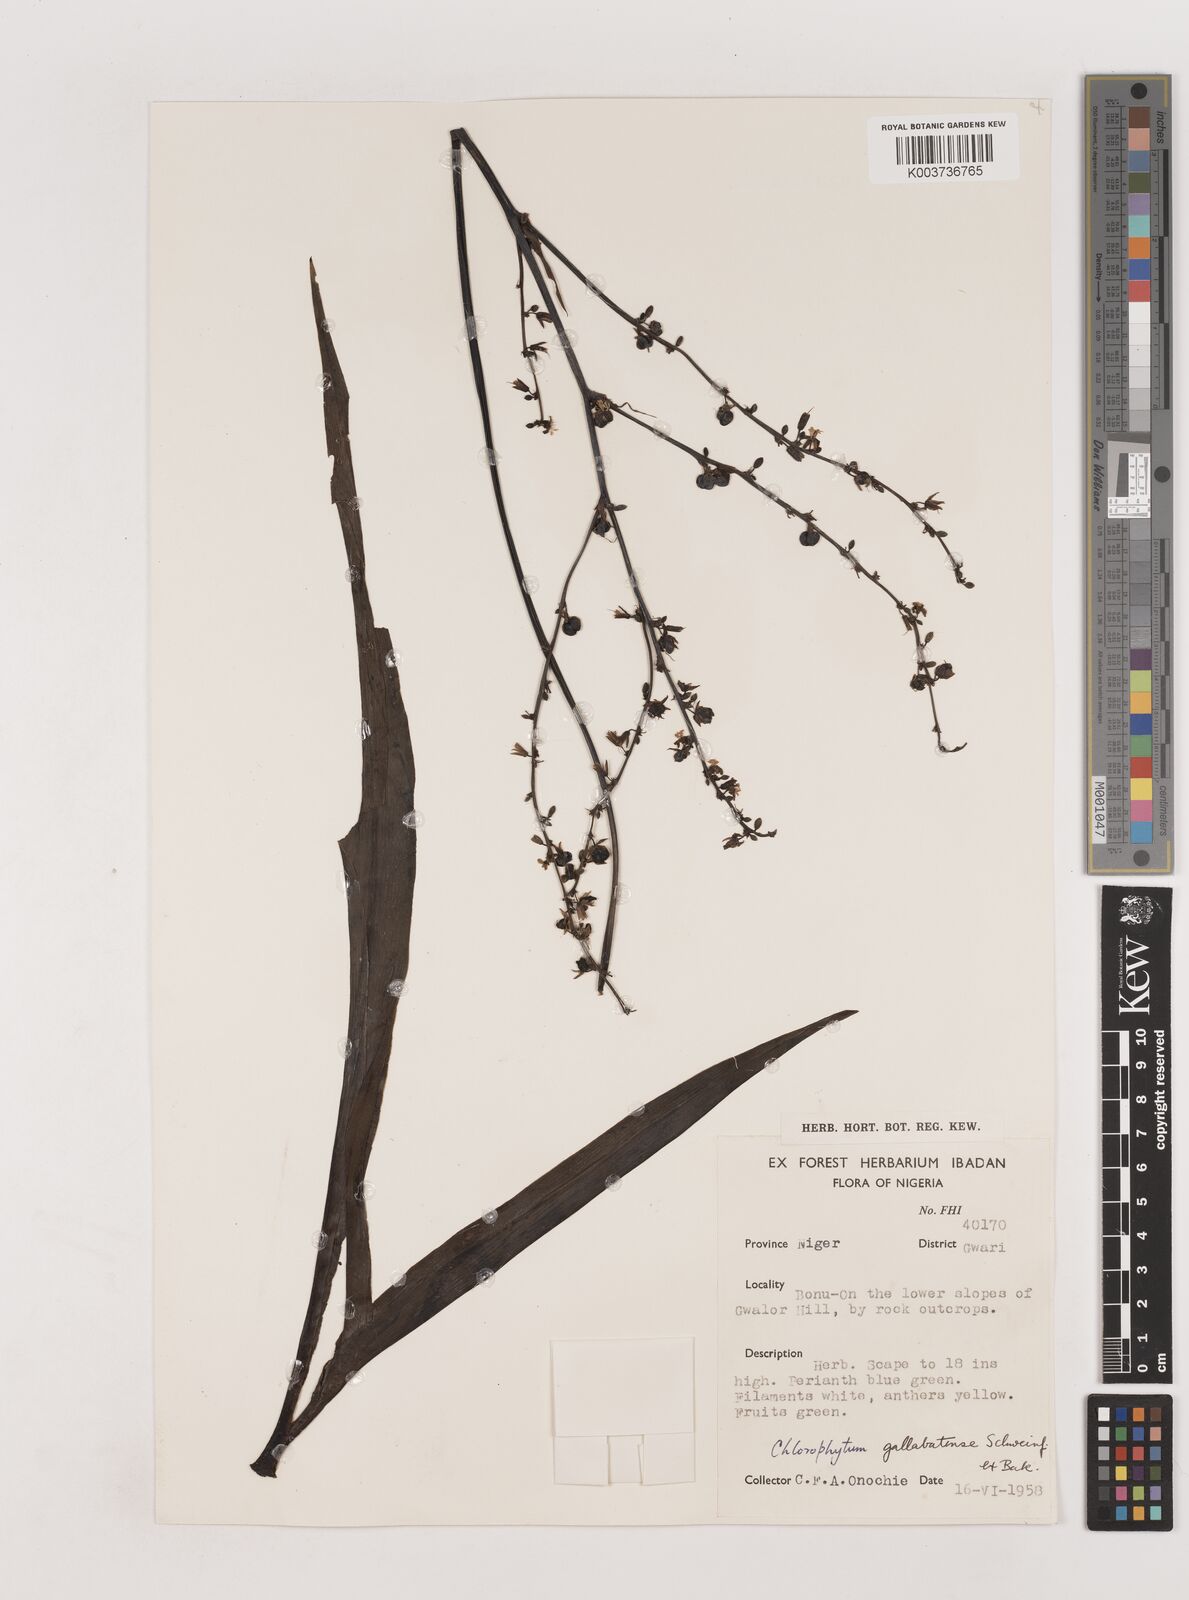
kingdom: Plantae
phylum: Tracheophyta
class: Liliopsida
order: Asparagales
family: Asparagaceae
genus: Chlorophytum
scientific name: Chlorophytum gallabatense
